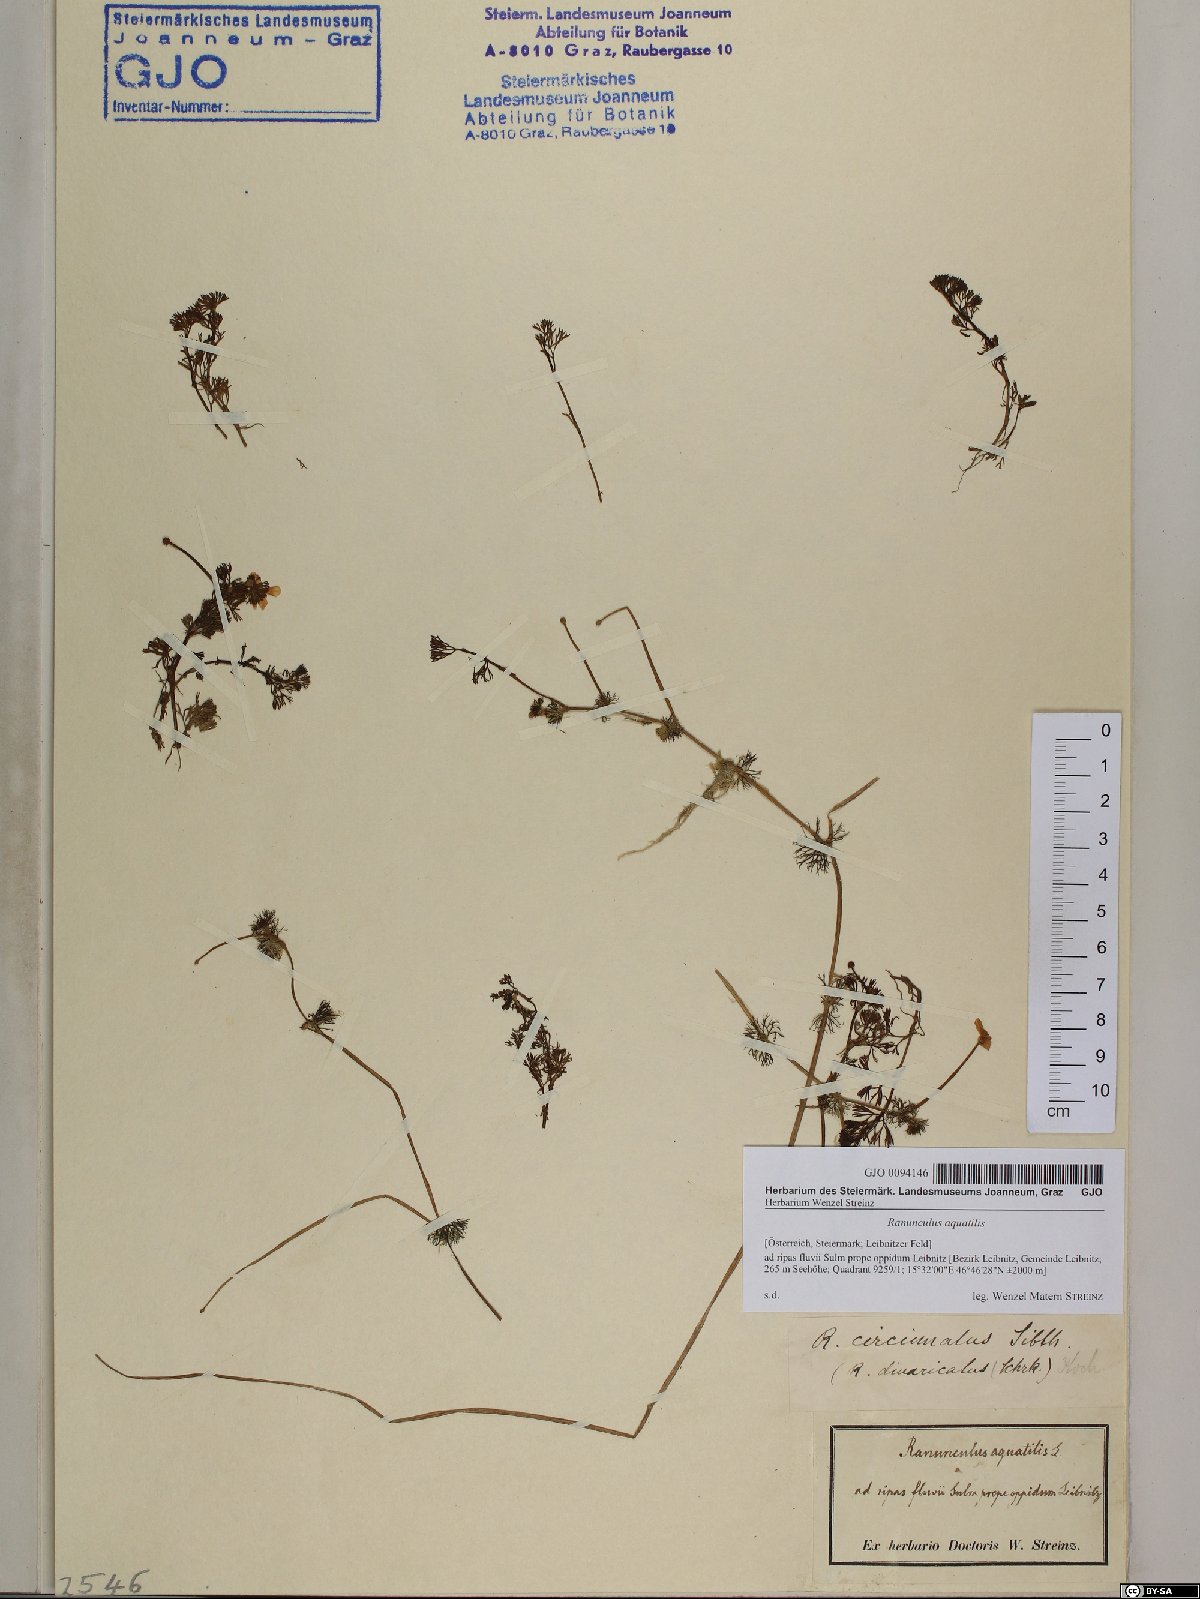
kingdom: Plantae
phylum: Tracheophyta
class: Magnoliopsida
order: Ranunculales
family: Ranunculaceae
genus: Ranunculus
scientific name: Ranunculus circinatus
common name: Fan-leaved water-crowfoot
